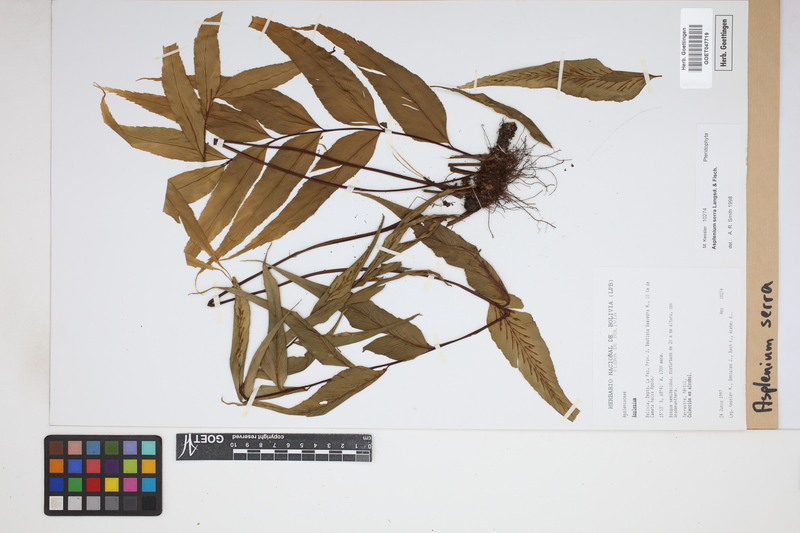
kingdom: Plantae
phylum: Tracheophyta
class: Polypodiopsida
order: Polypodiales
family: Aspleniaceae
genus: Asplenium
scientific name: Asplenium serra
